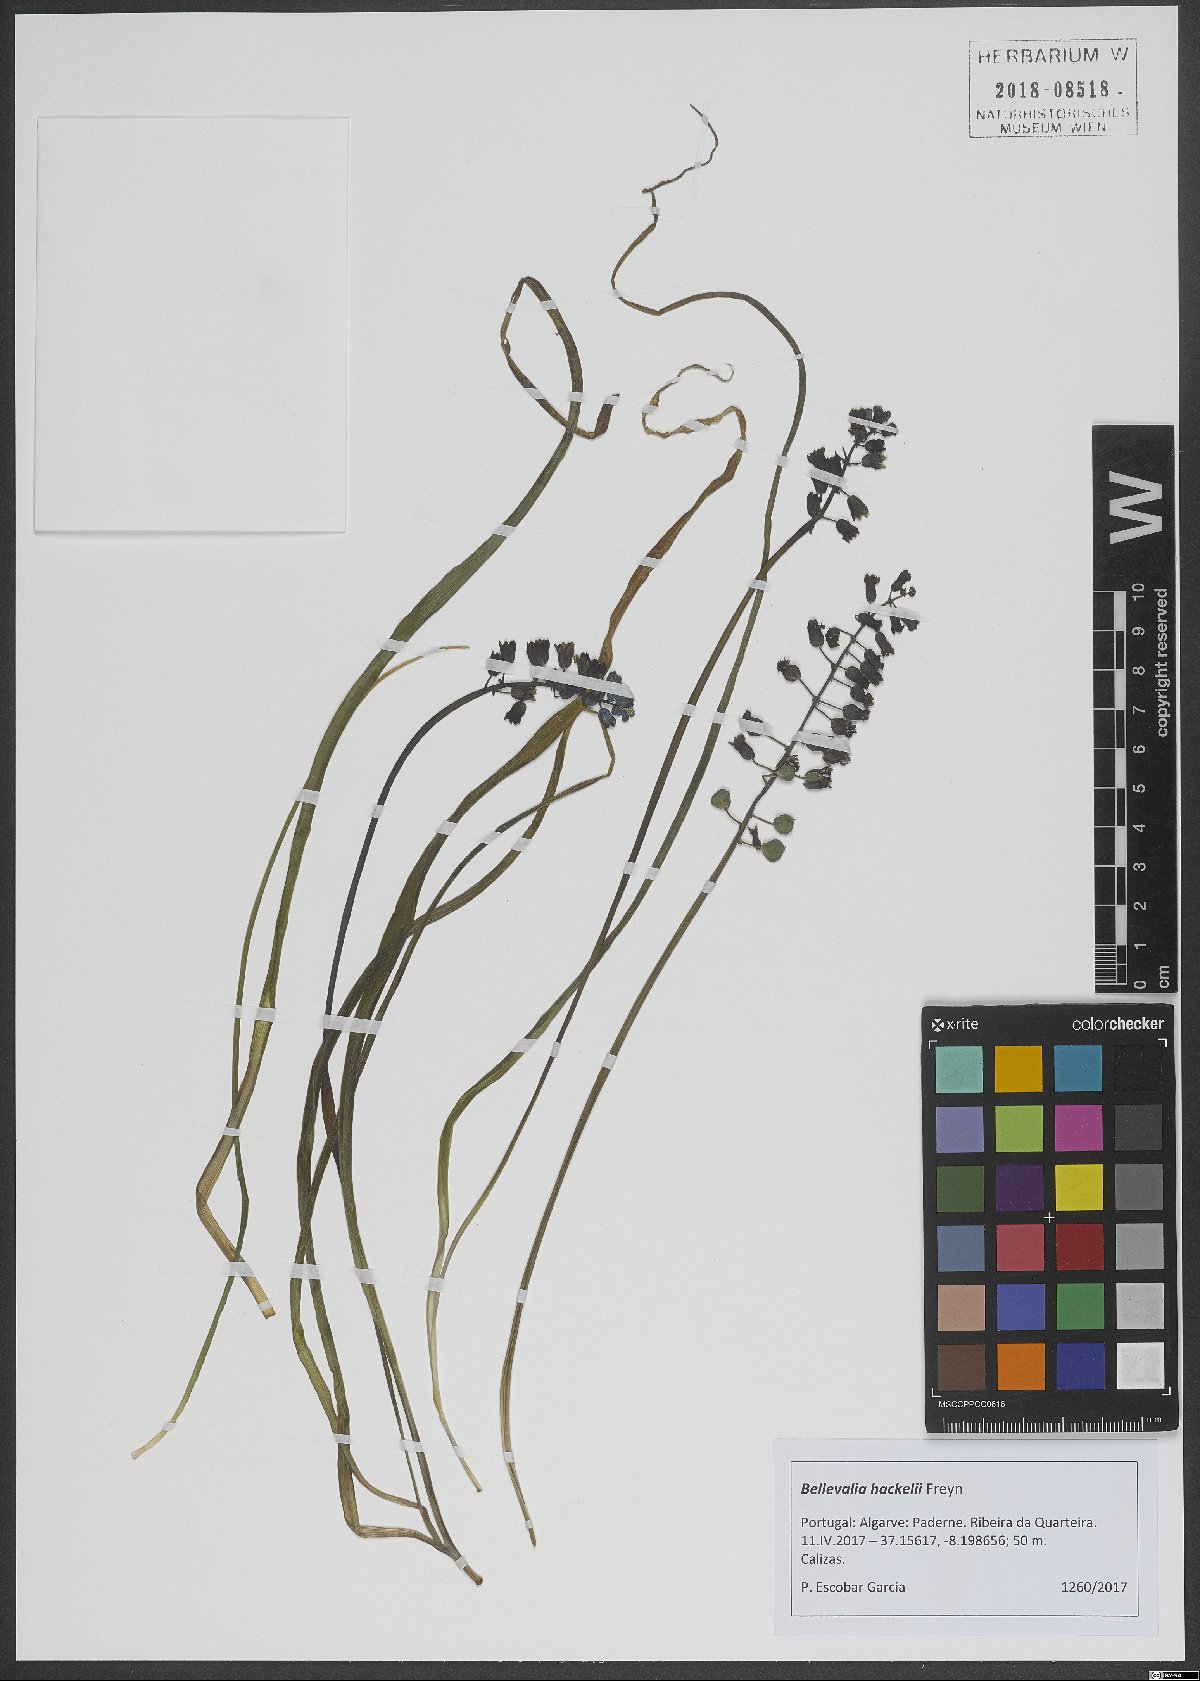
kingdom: Plantae
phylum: Tracheophyta
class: Liliopsida
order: Asparagales
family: Asparagaceae
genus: Bellevalia
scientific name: Bellevalia dubia
